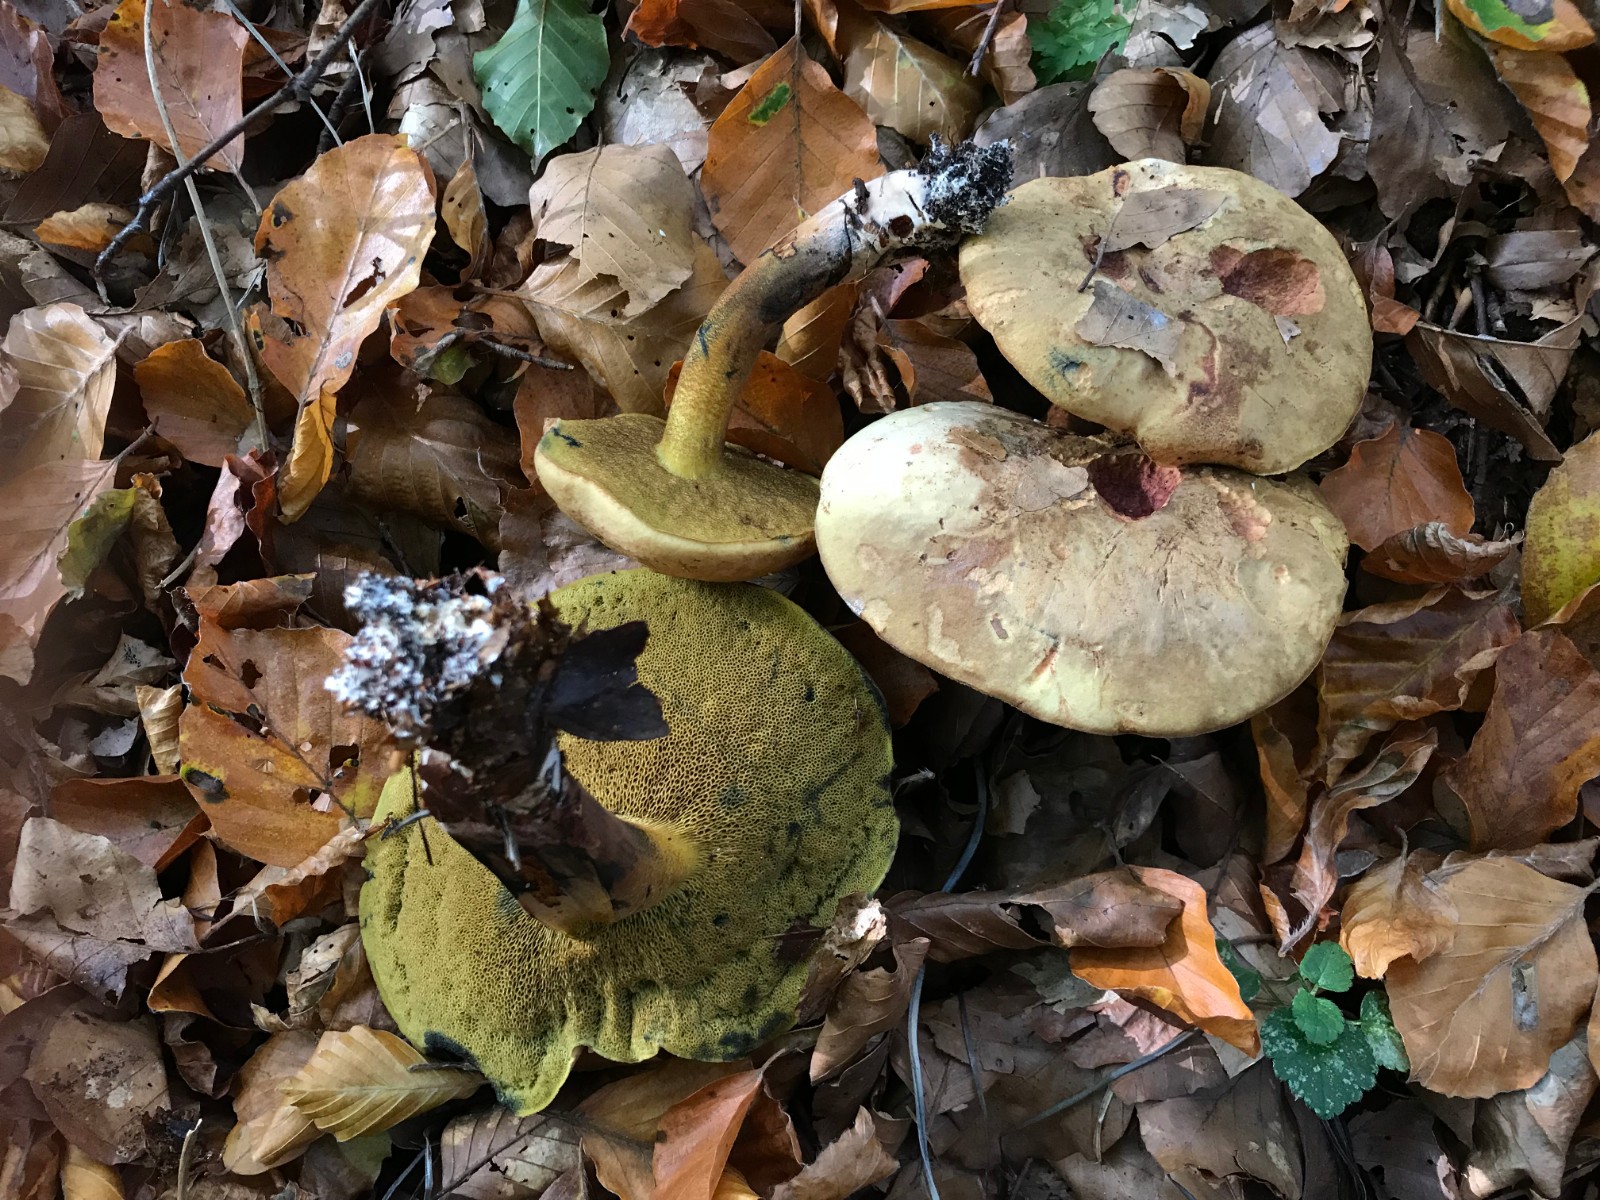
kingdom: Fungi
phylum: Basidiomycota
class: Agaricomycetes
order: Boletales
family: Boletaceae
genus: Cyanoboletus
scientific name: Cyanoboletus pulverulentus
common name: sortblånende rørhat
